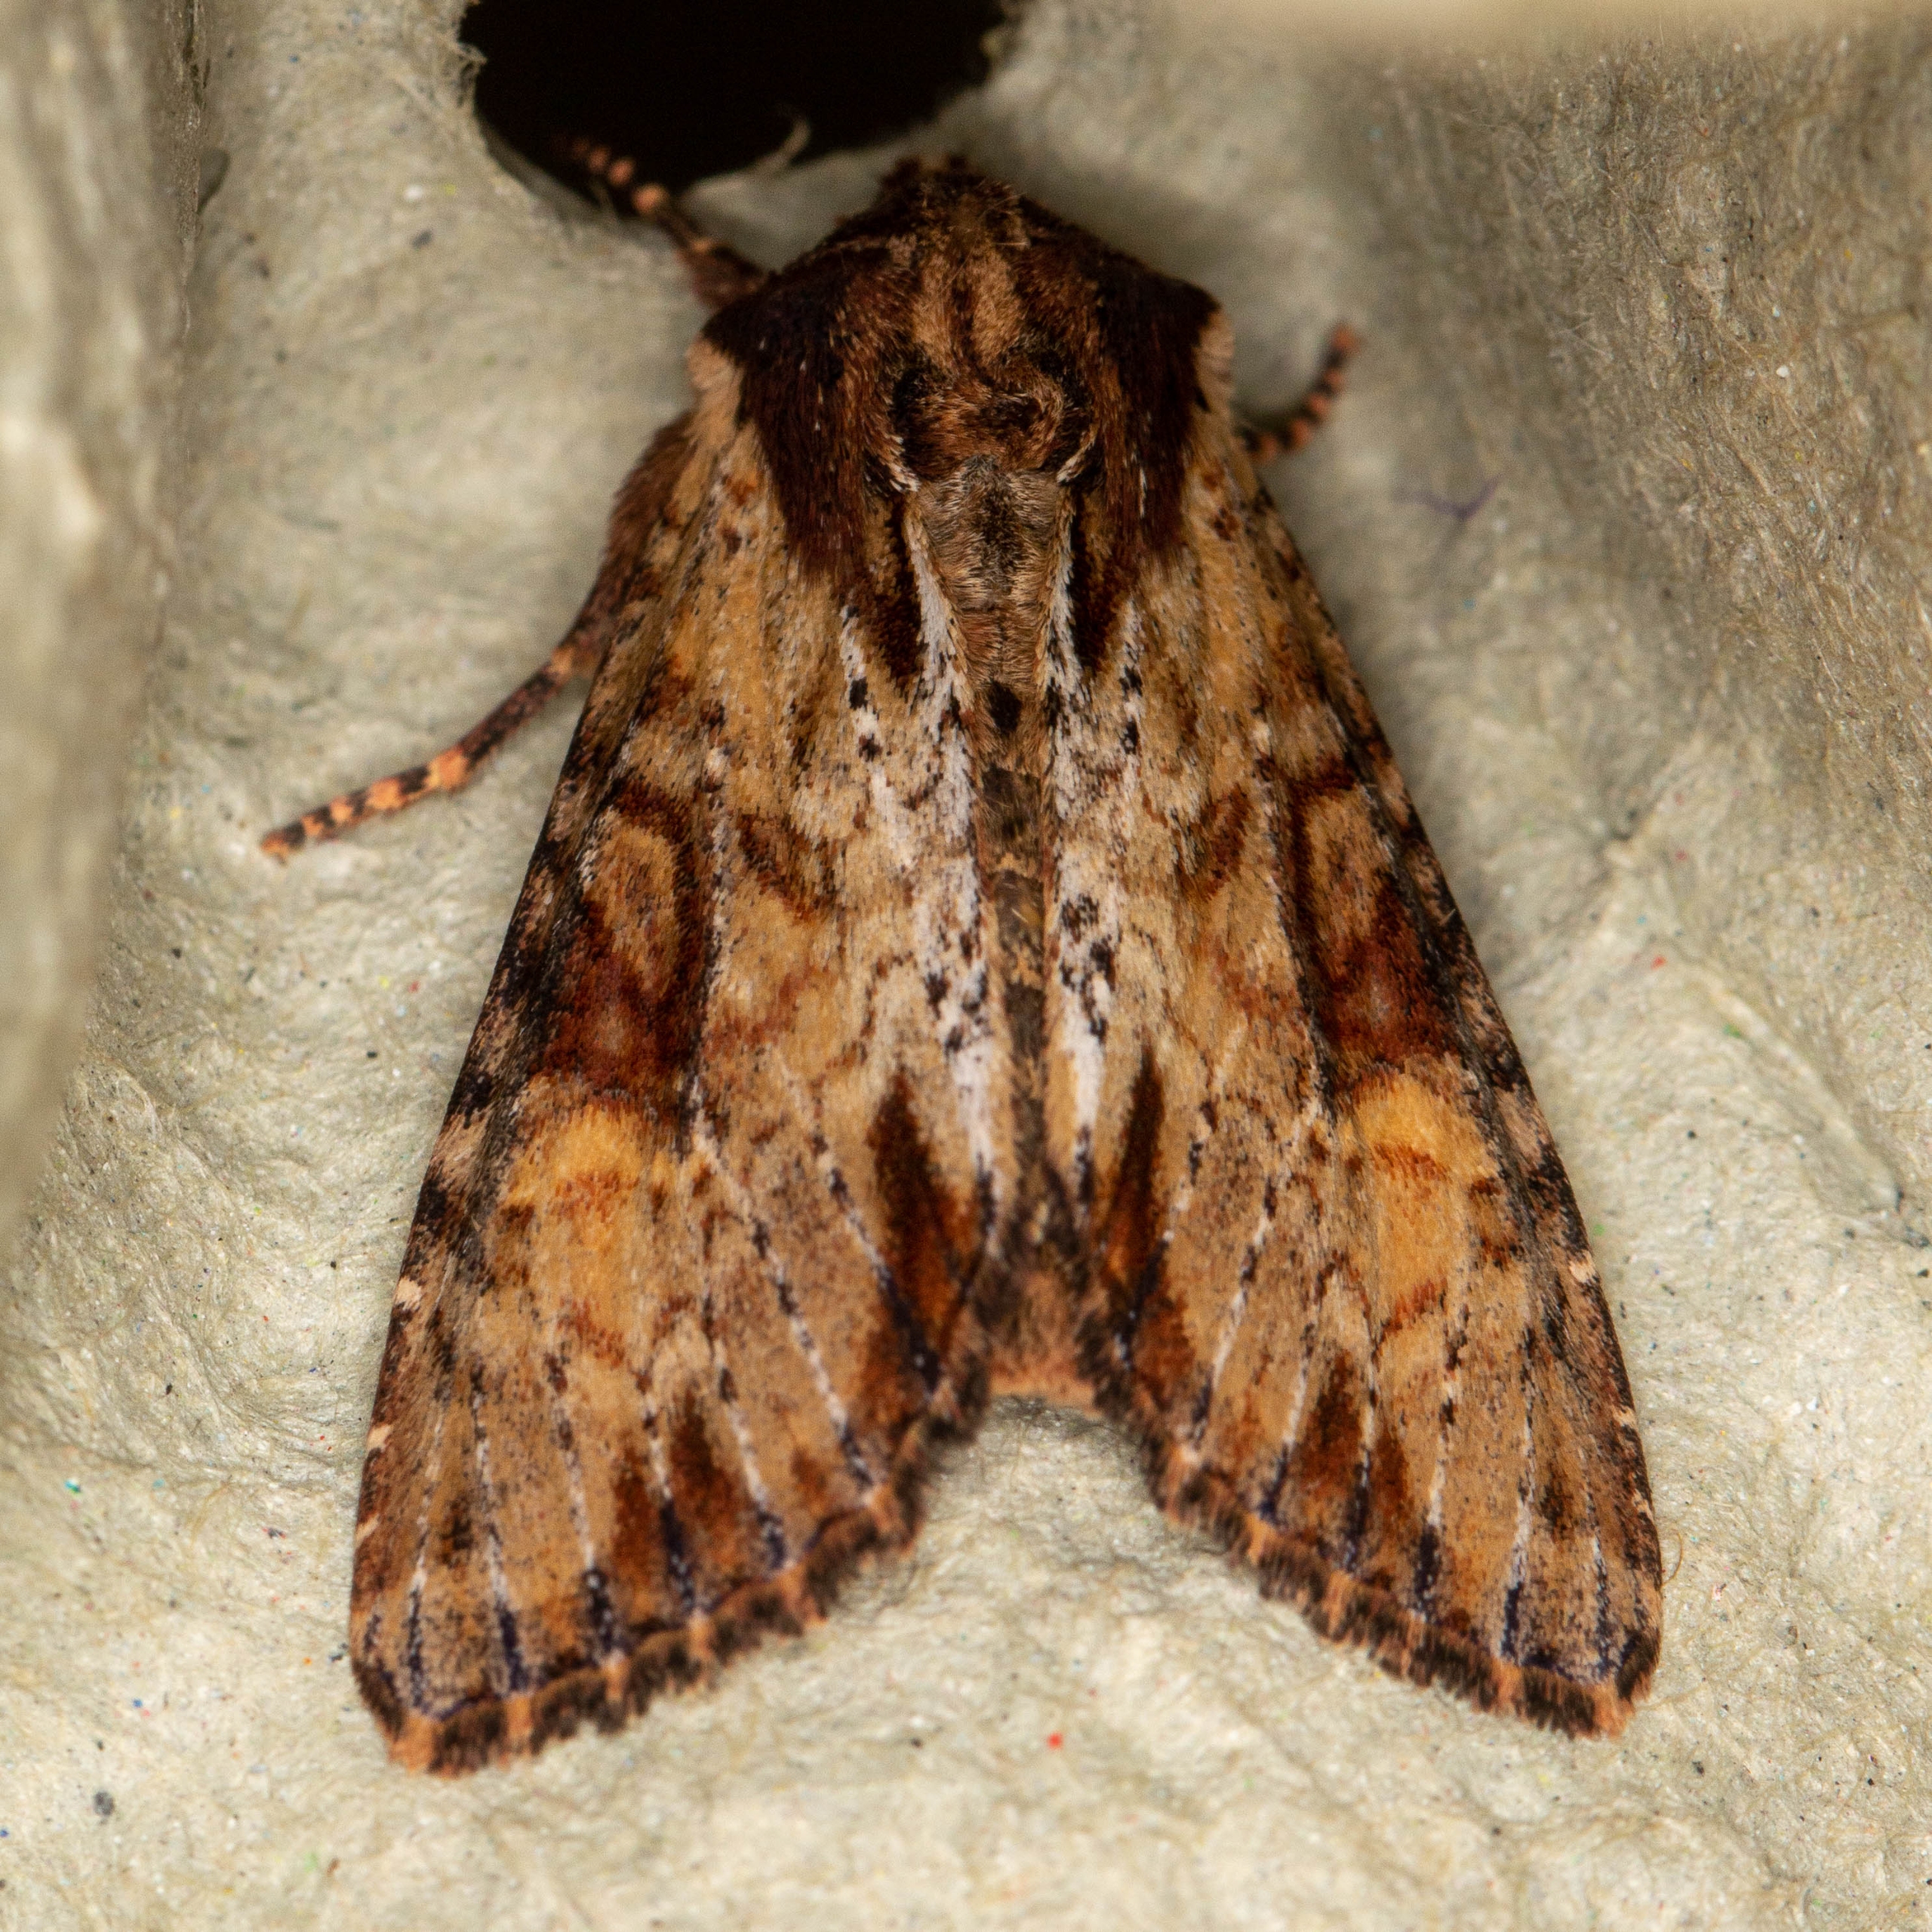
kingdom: Animalia
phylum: Arthropoda
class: Insecta
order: Lepidoptera
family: Noctuidae
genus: Apamea
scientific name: Apamea crenata
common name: Rustugle
